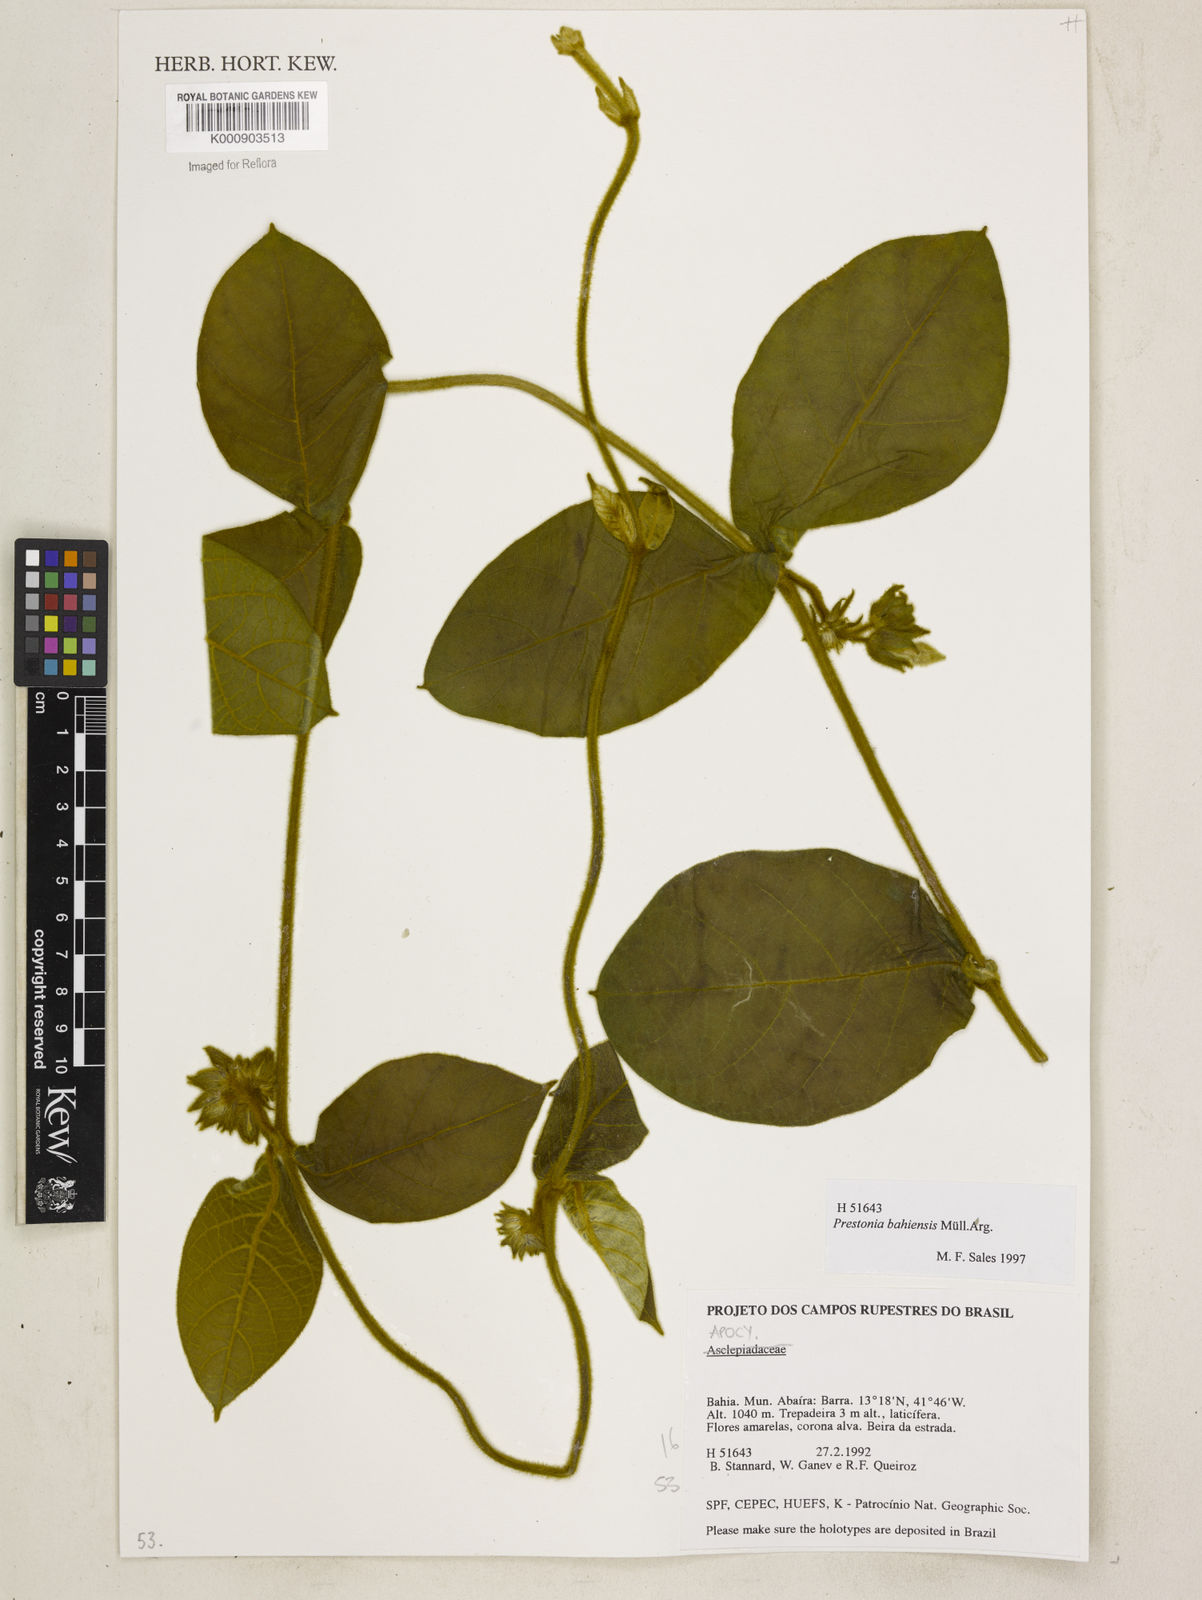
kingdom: Plantae
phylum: Tracheophyta
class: Magnoliopsida
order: Gentianales
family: Apocynaceae
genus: Prestonia
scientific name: Prestonia
